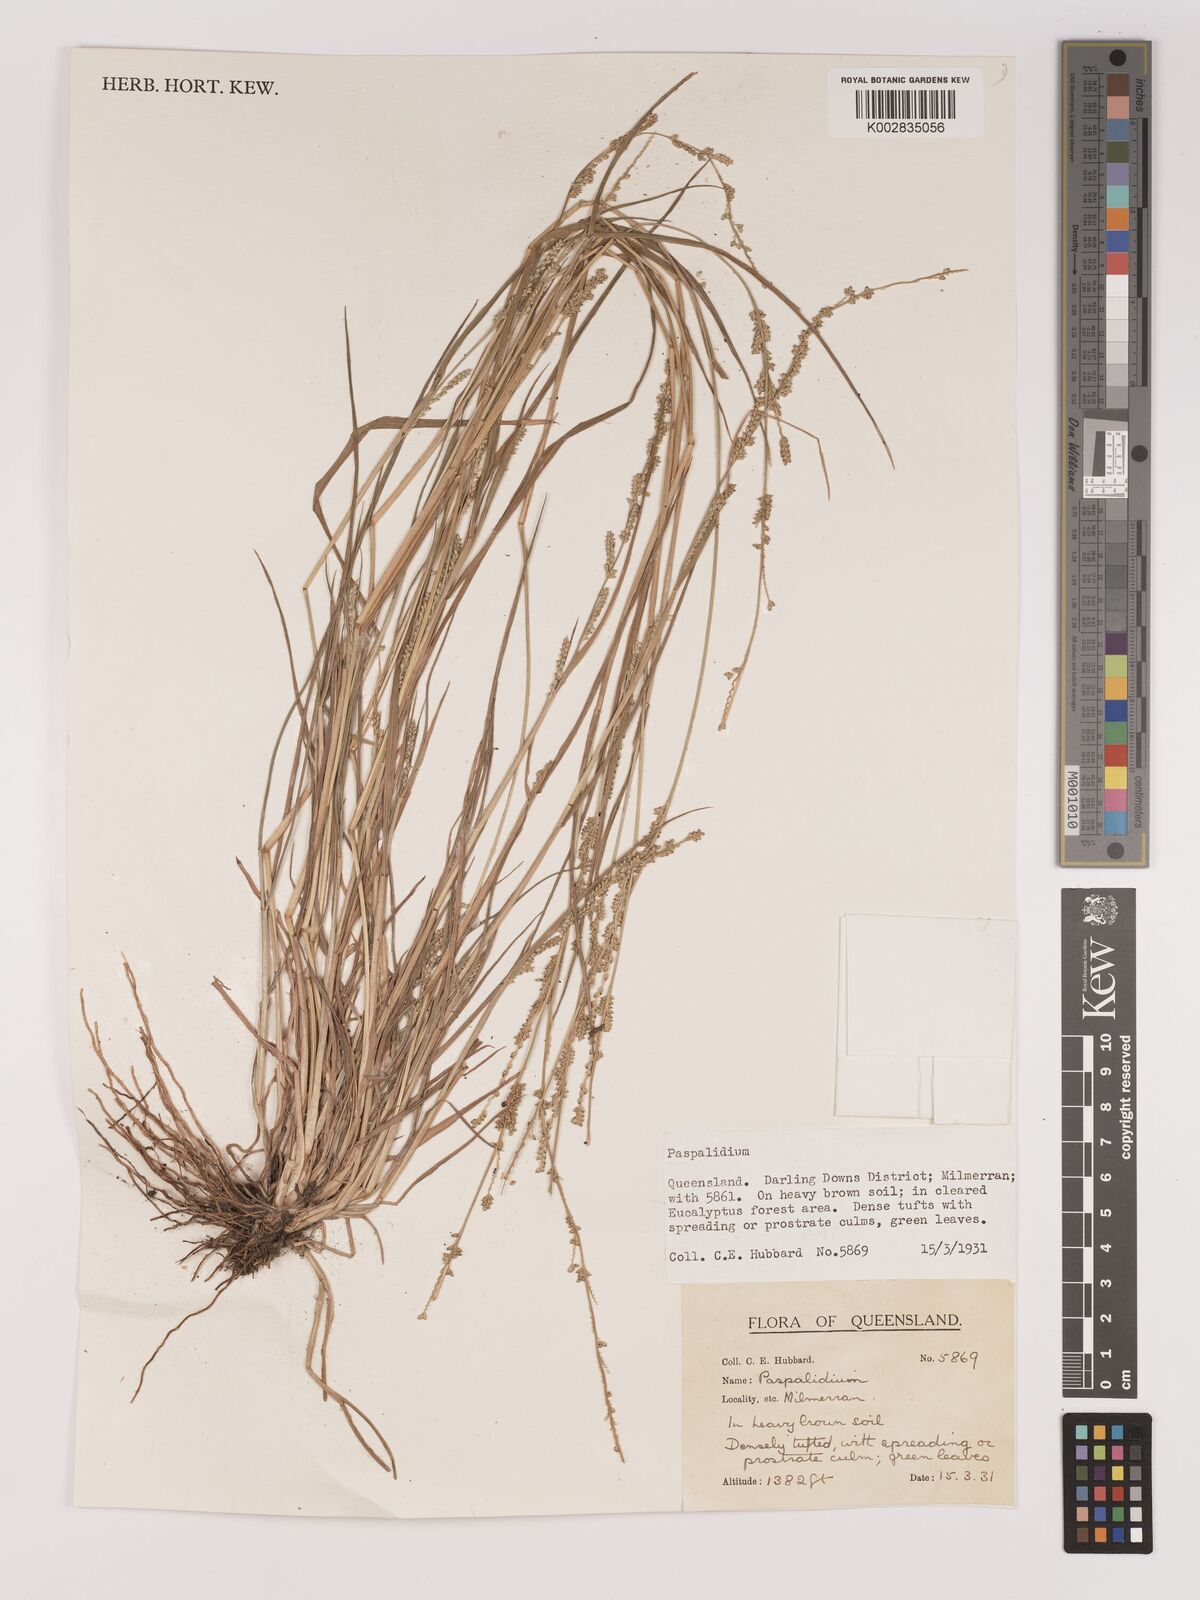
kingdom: Plantae
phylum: Tracheophyta
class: Liliopsida
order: Poales
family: Poaceae
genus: Setaria
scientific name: Setaria
